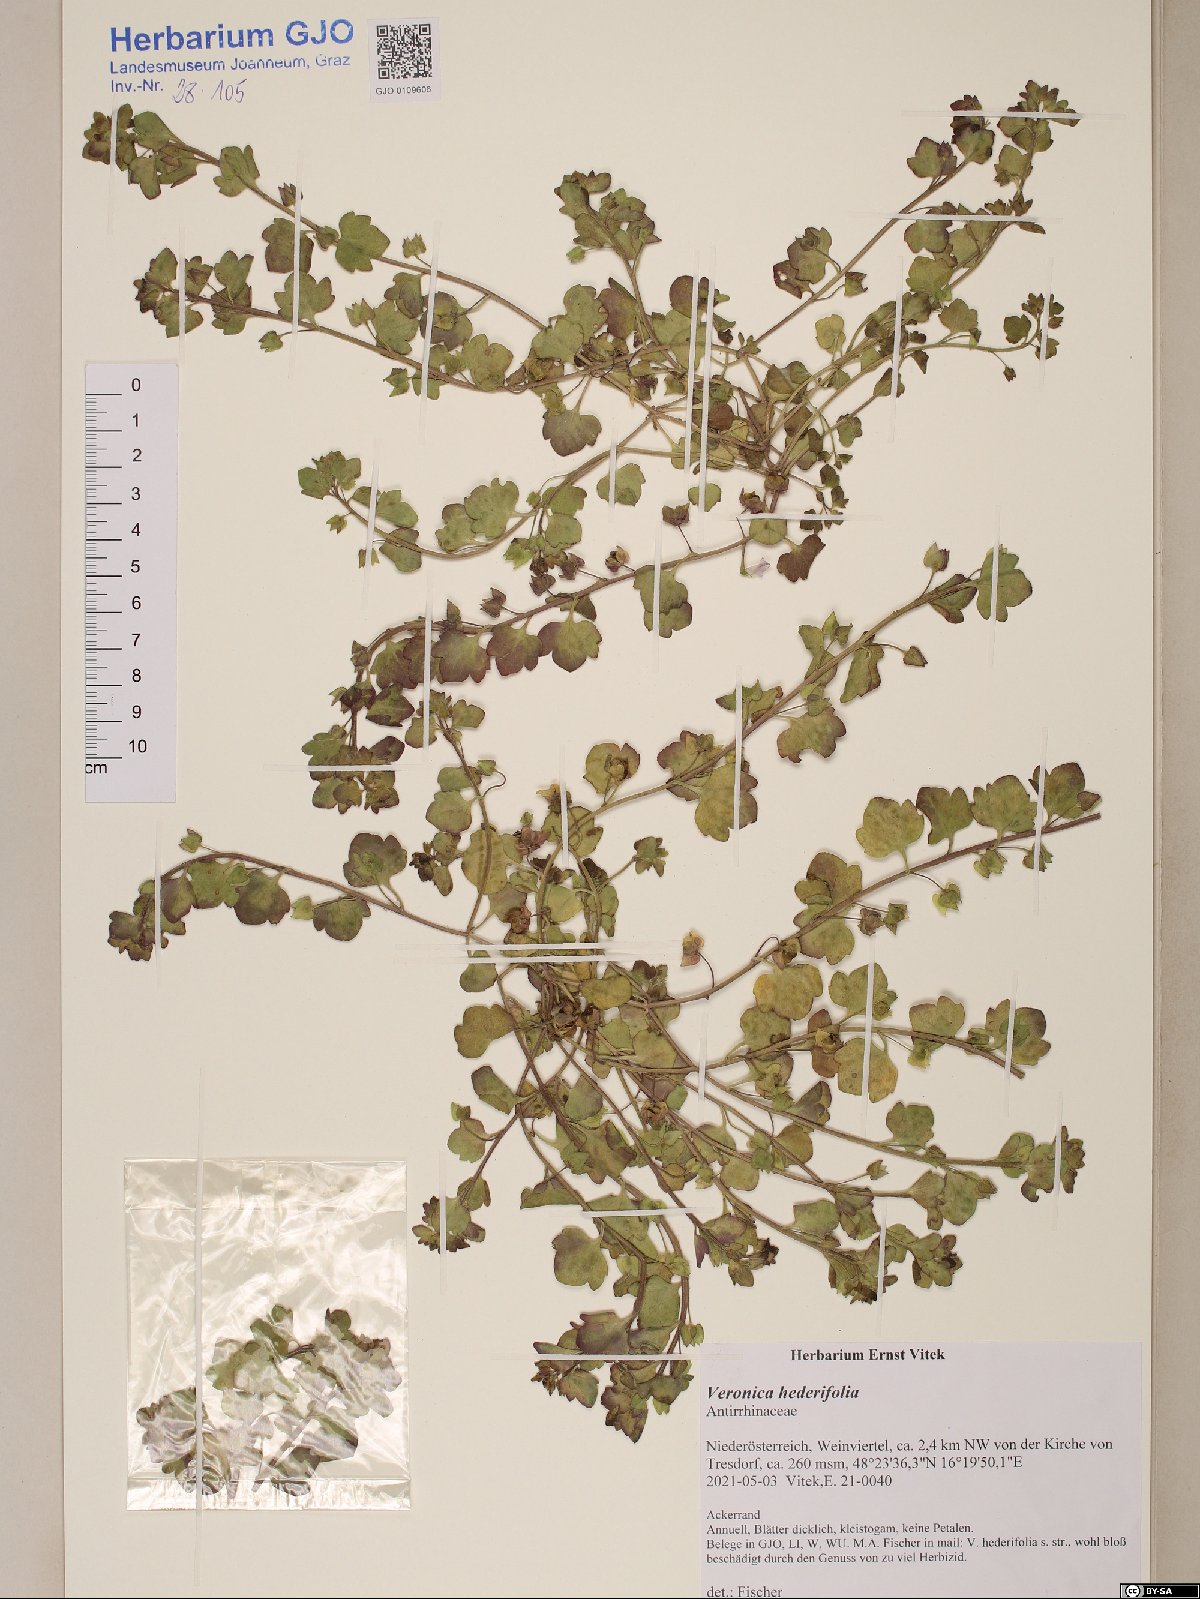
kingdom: Plantae
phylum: Tracheophyta
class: Magnoliopsida
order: Caryophyllales
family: Cactaceae
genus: Lobivia
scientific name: Lobivia chrysochete
